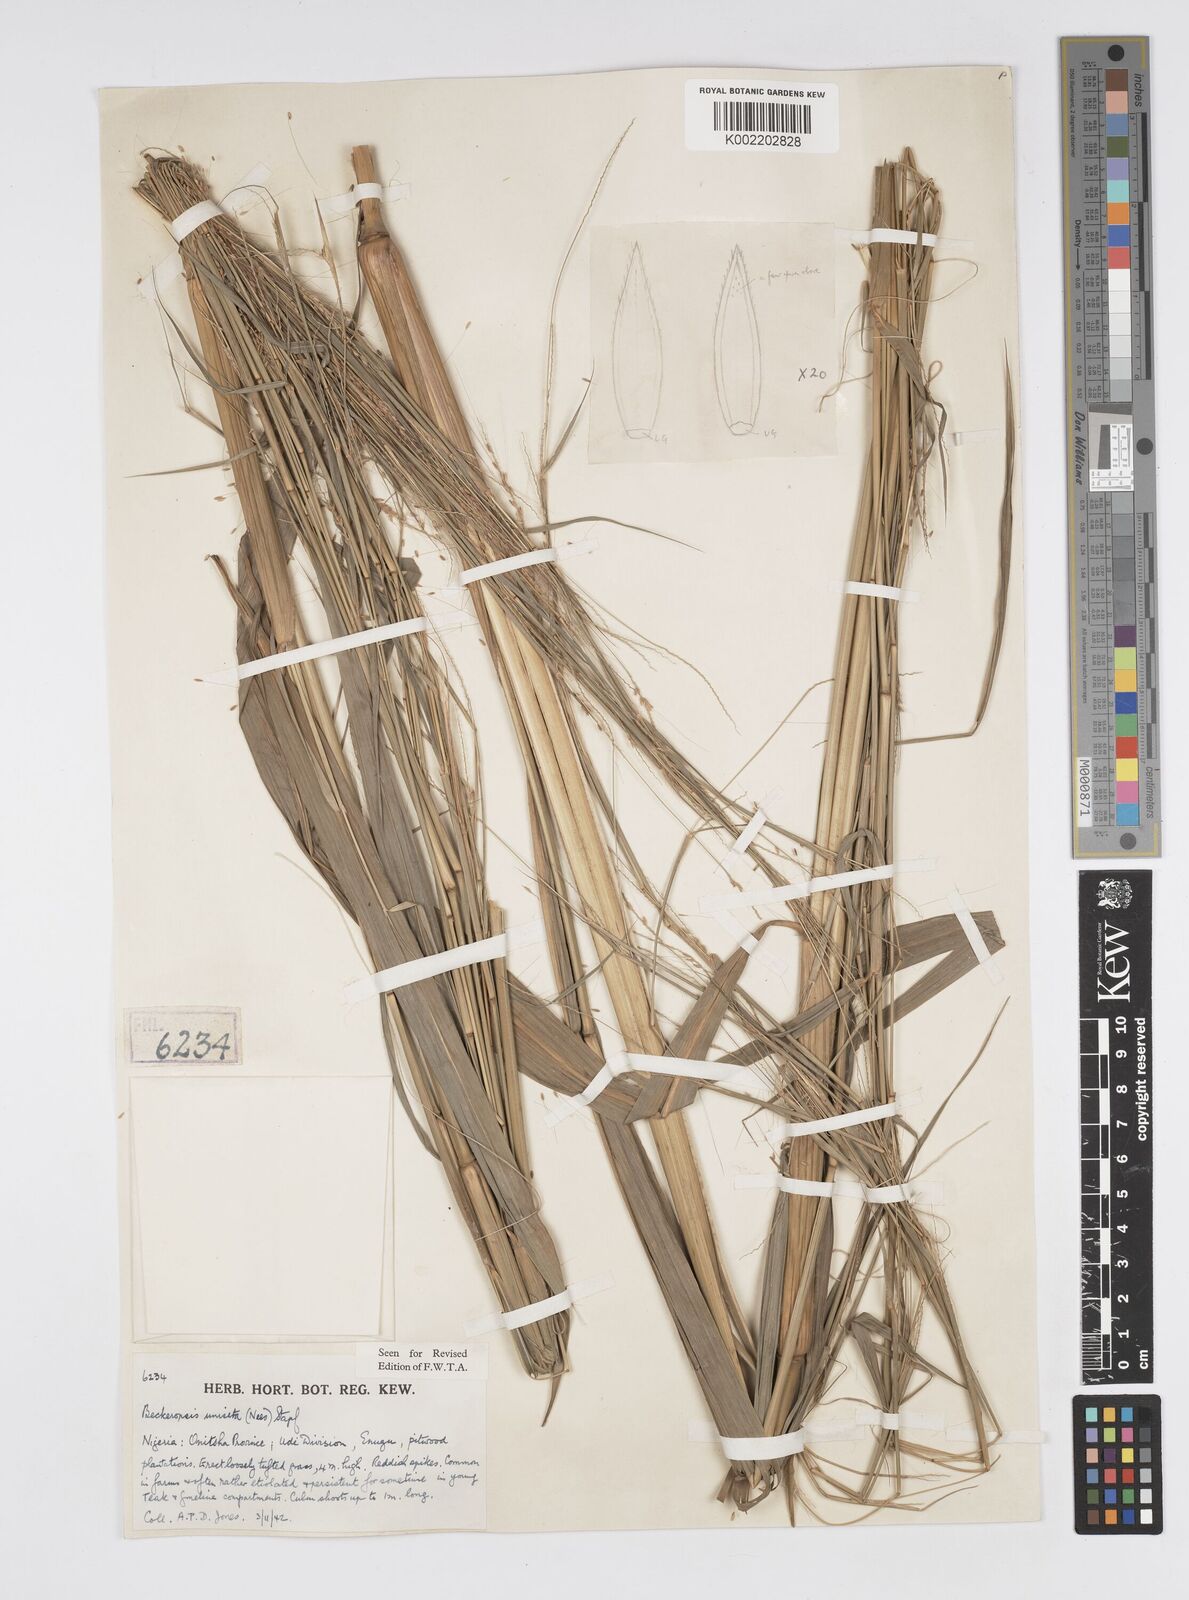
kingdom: Plantae
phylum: Tracheophyta
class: Liliopsida
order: Poales
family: Poaceae
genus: Cenchrus
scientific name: Cenchrus unisetus
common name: Natal grass
